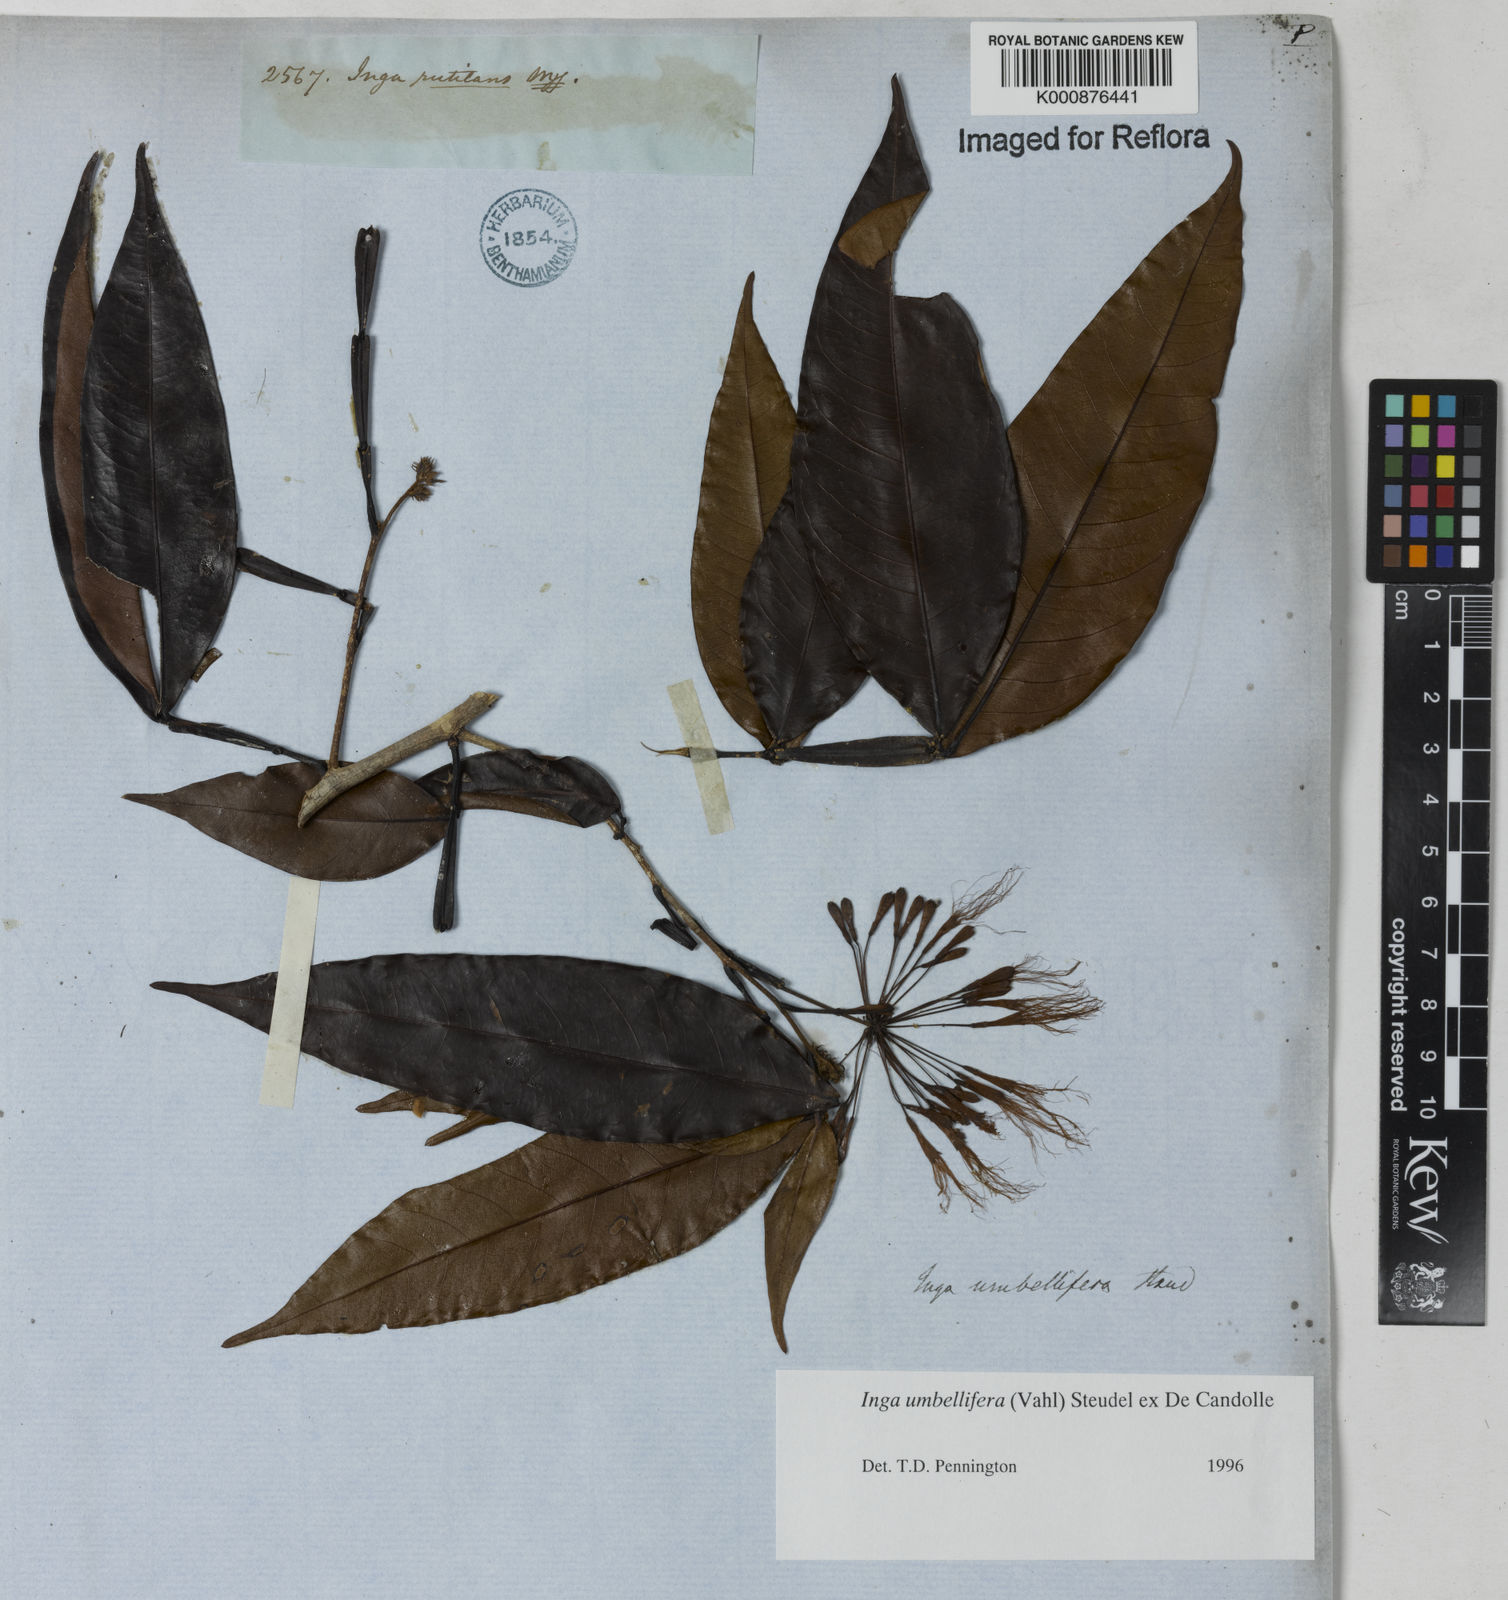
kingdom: Plantae
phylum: Tracheophyta
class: Magnoliopsida
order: Fabales
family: Fabaceae
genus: Inga
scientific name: Inga umbellifera
